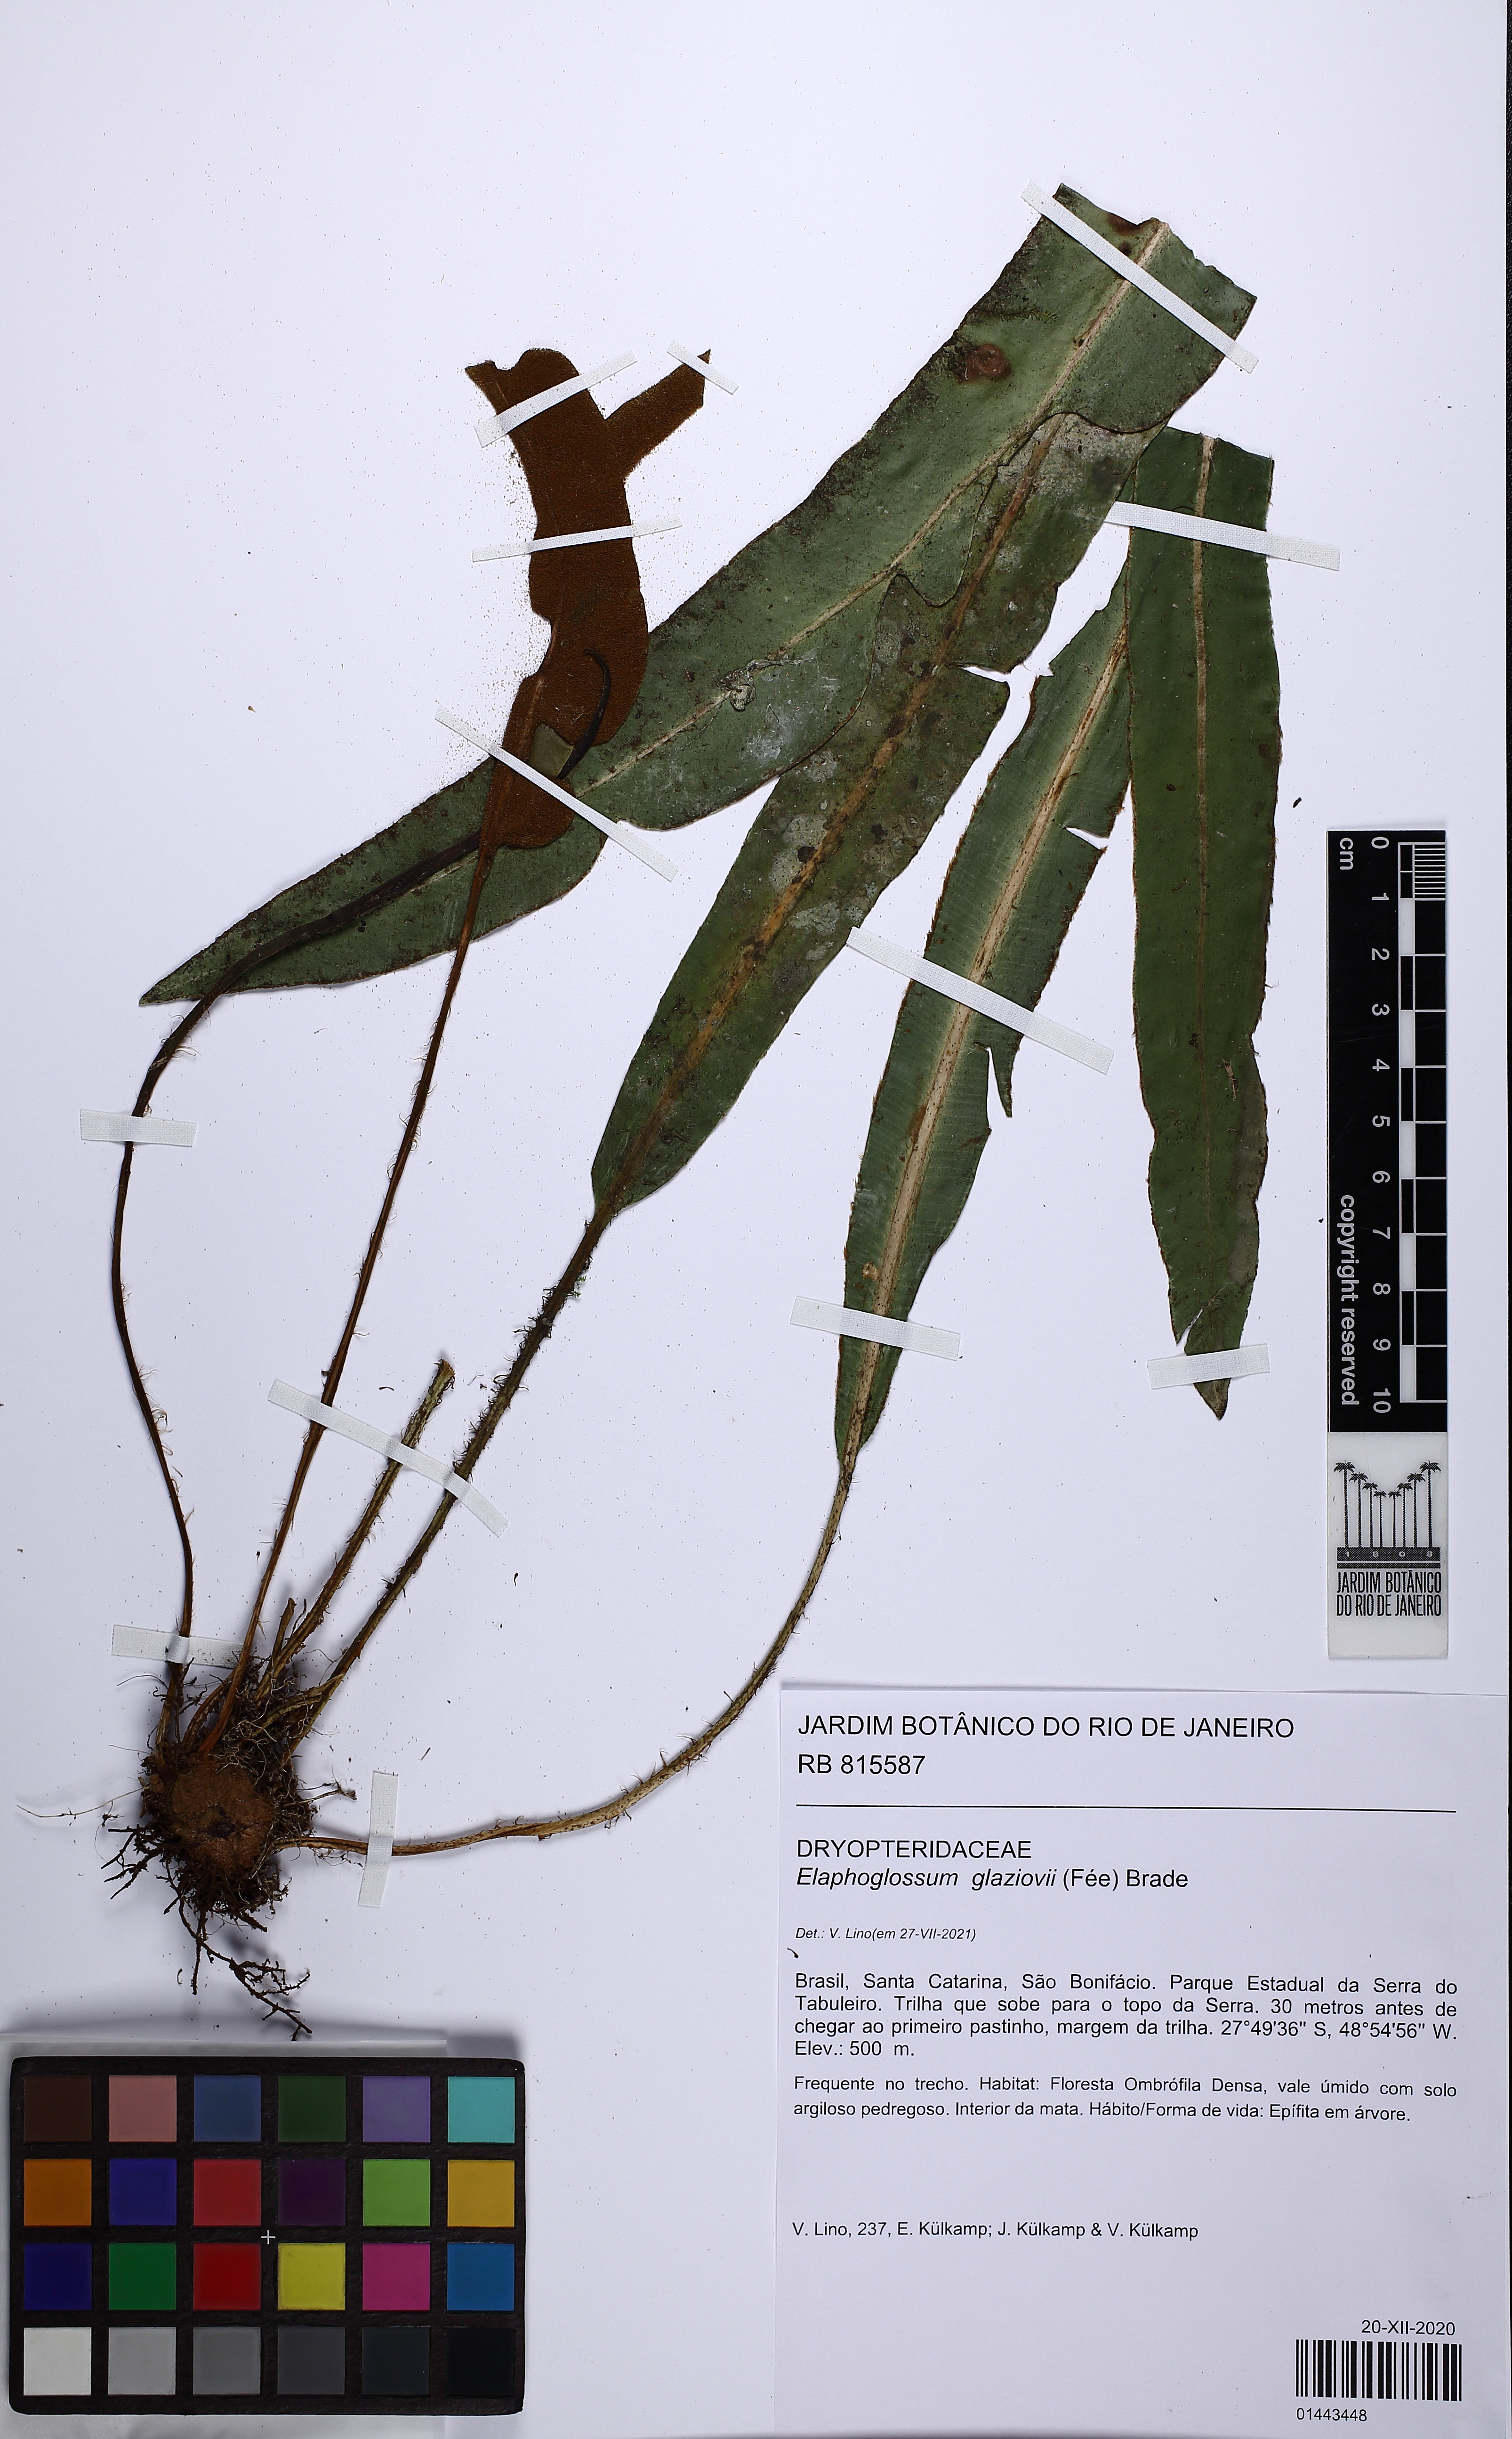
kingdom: Plantae
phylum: Tracheophyta
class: Polypodiopsida
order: Polypodiales
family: Dryopteridaceae
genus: Elaphoglossum
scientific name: Elaphoglossum glaziovii
